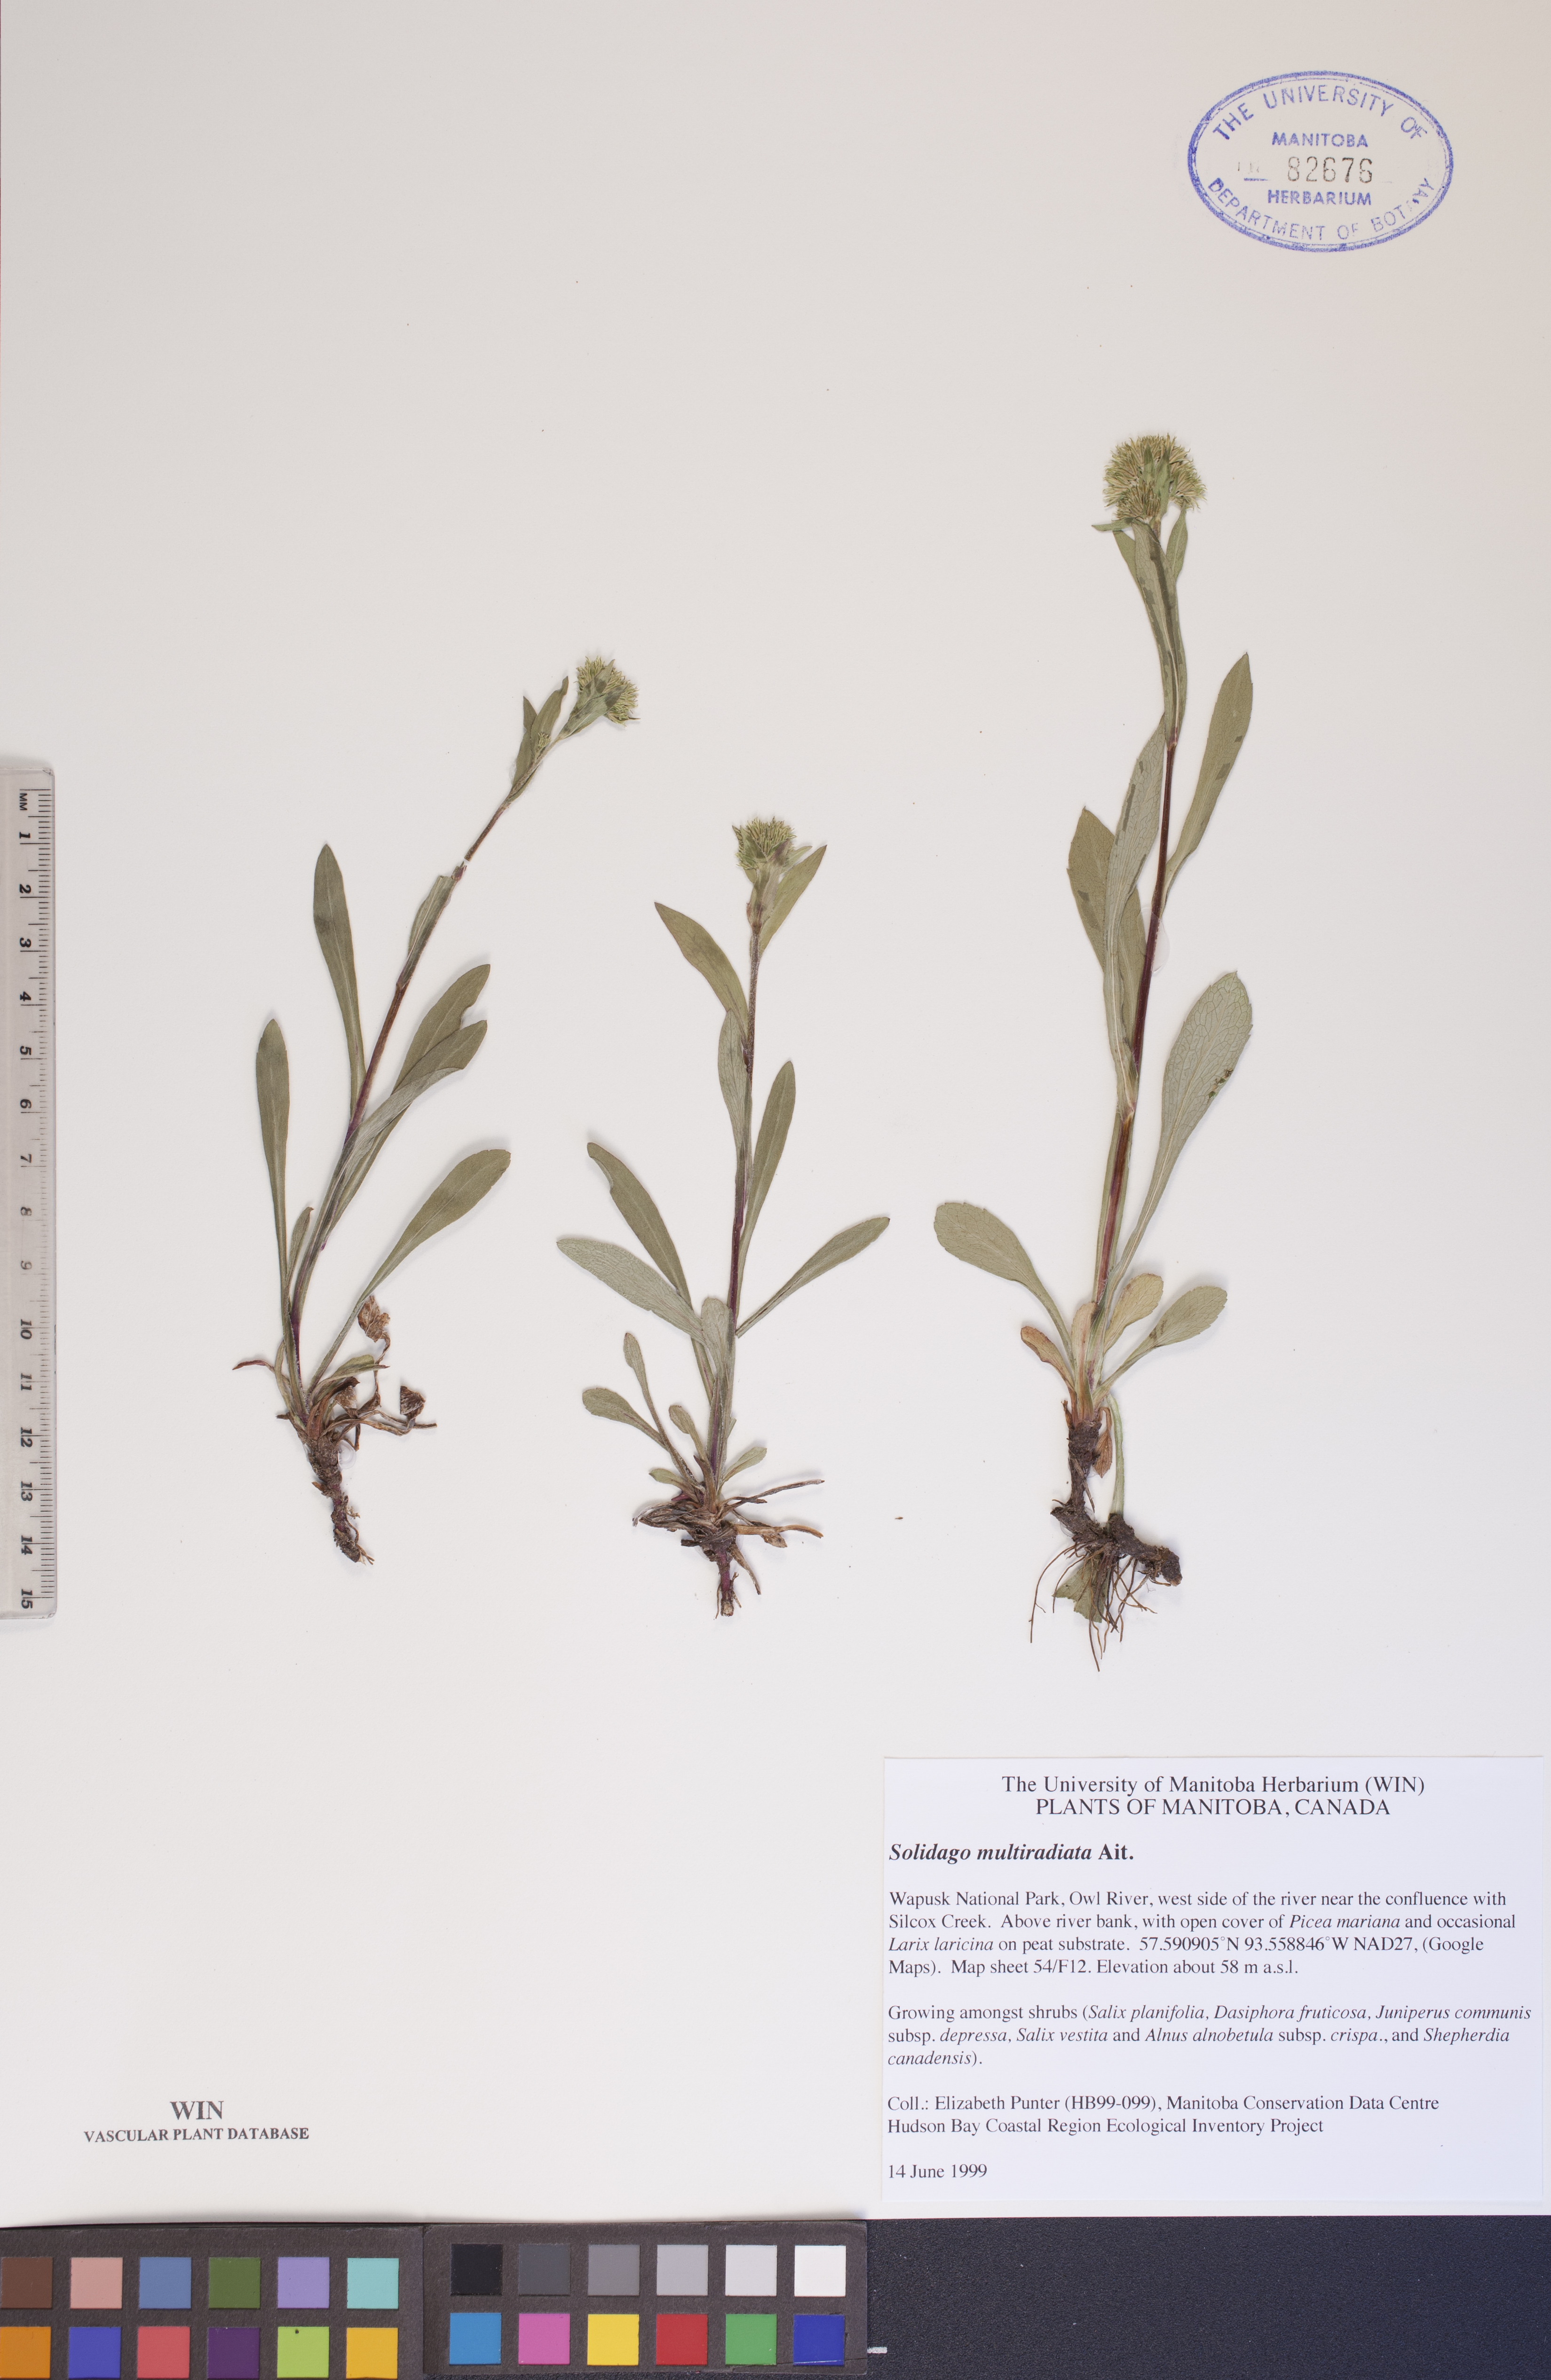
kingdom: Plantae
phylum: Tracheophyta
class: Magnoliopsida
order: Asterales
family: Asteraceae
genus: Solidago
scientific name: Solidago multiradiata
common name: Northern goldenrod
